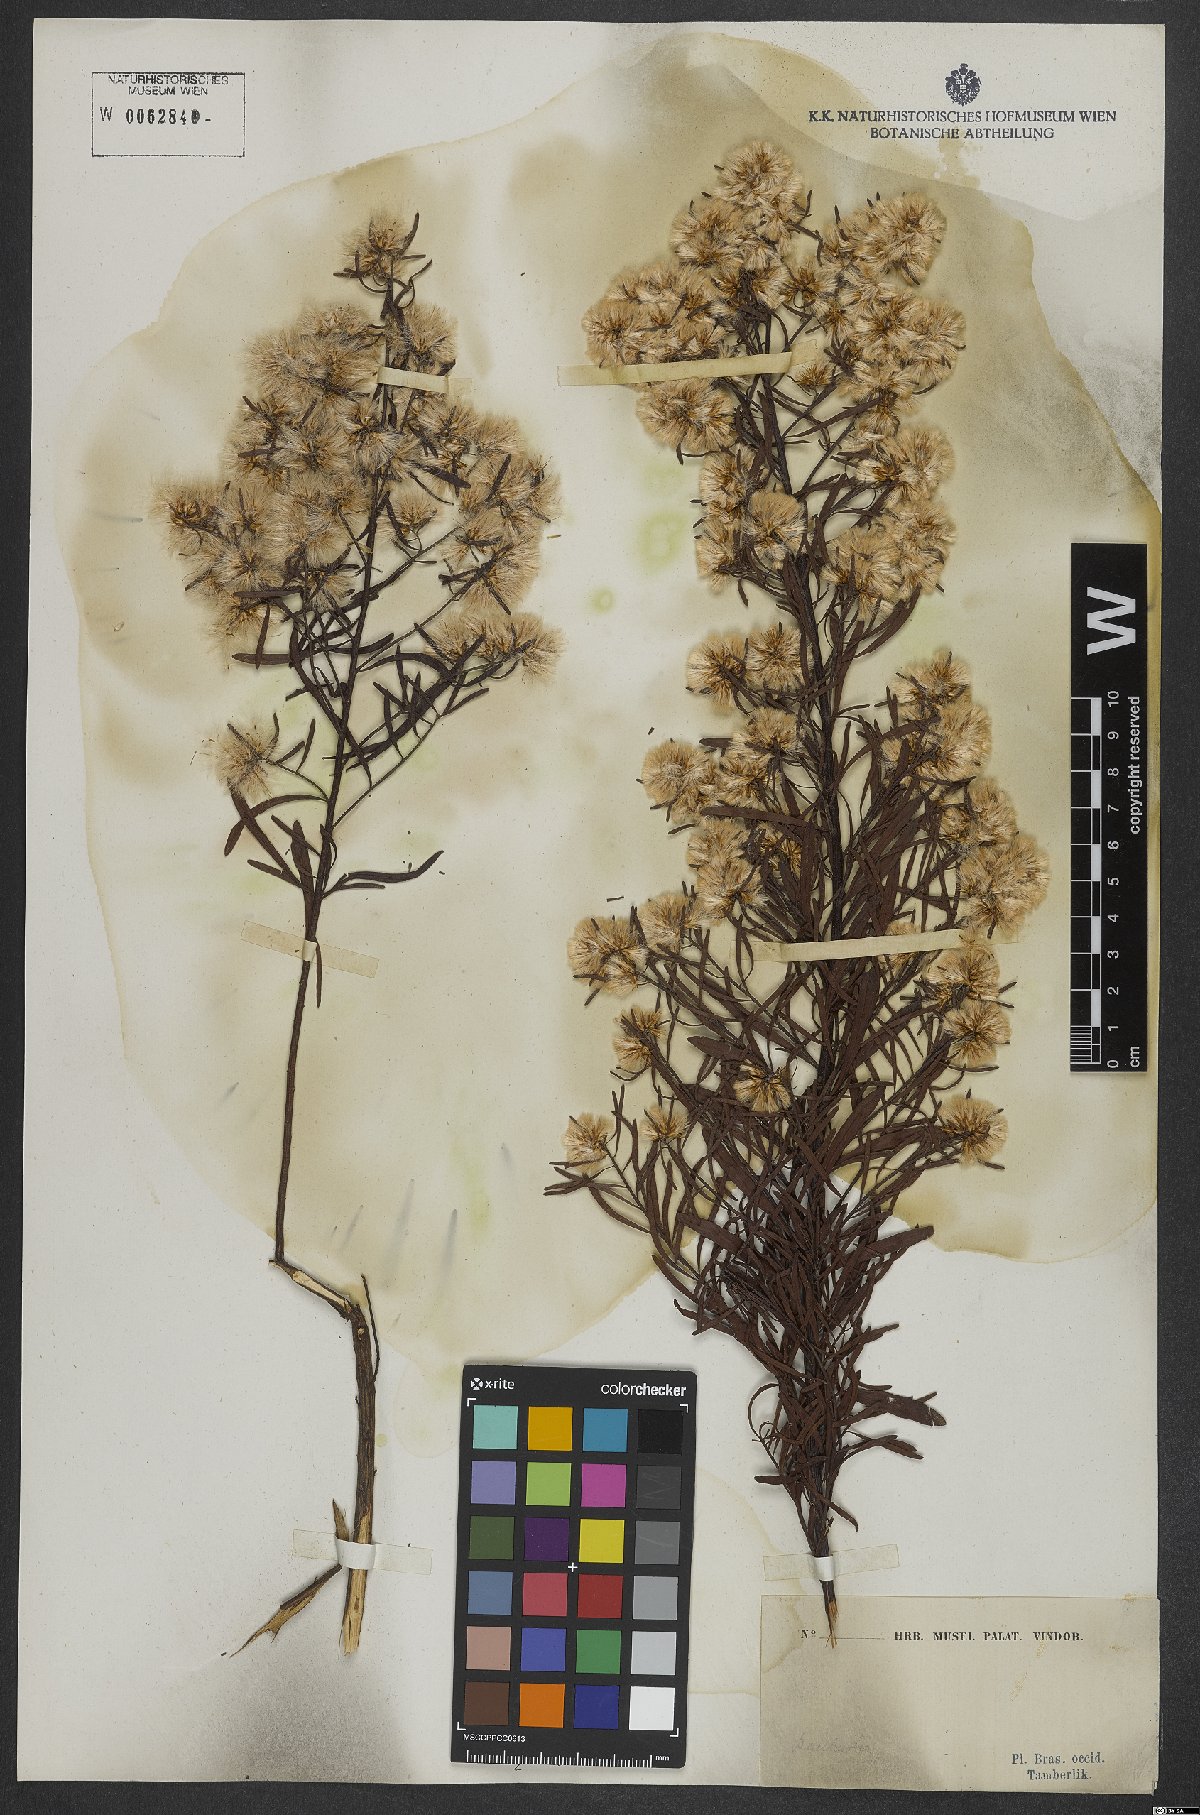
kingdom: Plantae
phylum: Tracheophyta
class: Magnoliopsida
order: Asterales
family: Asteraceae
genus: Baccharis
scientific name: Baccharis
